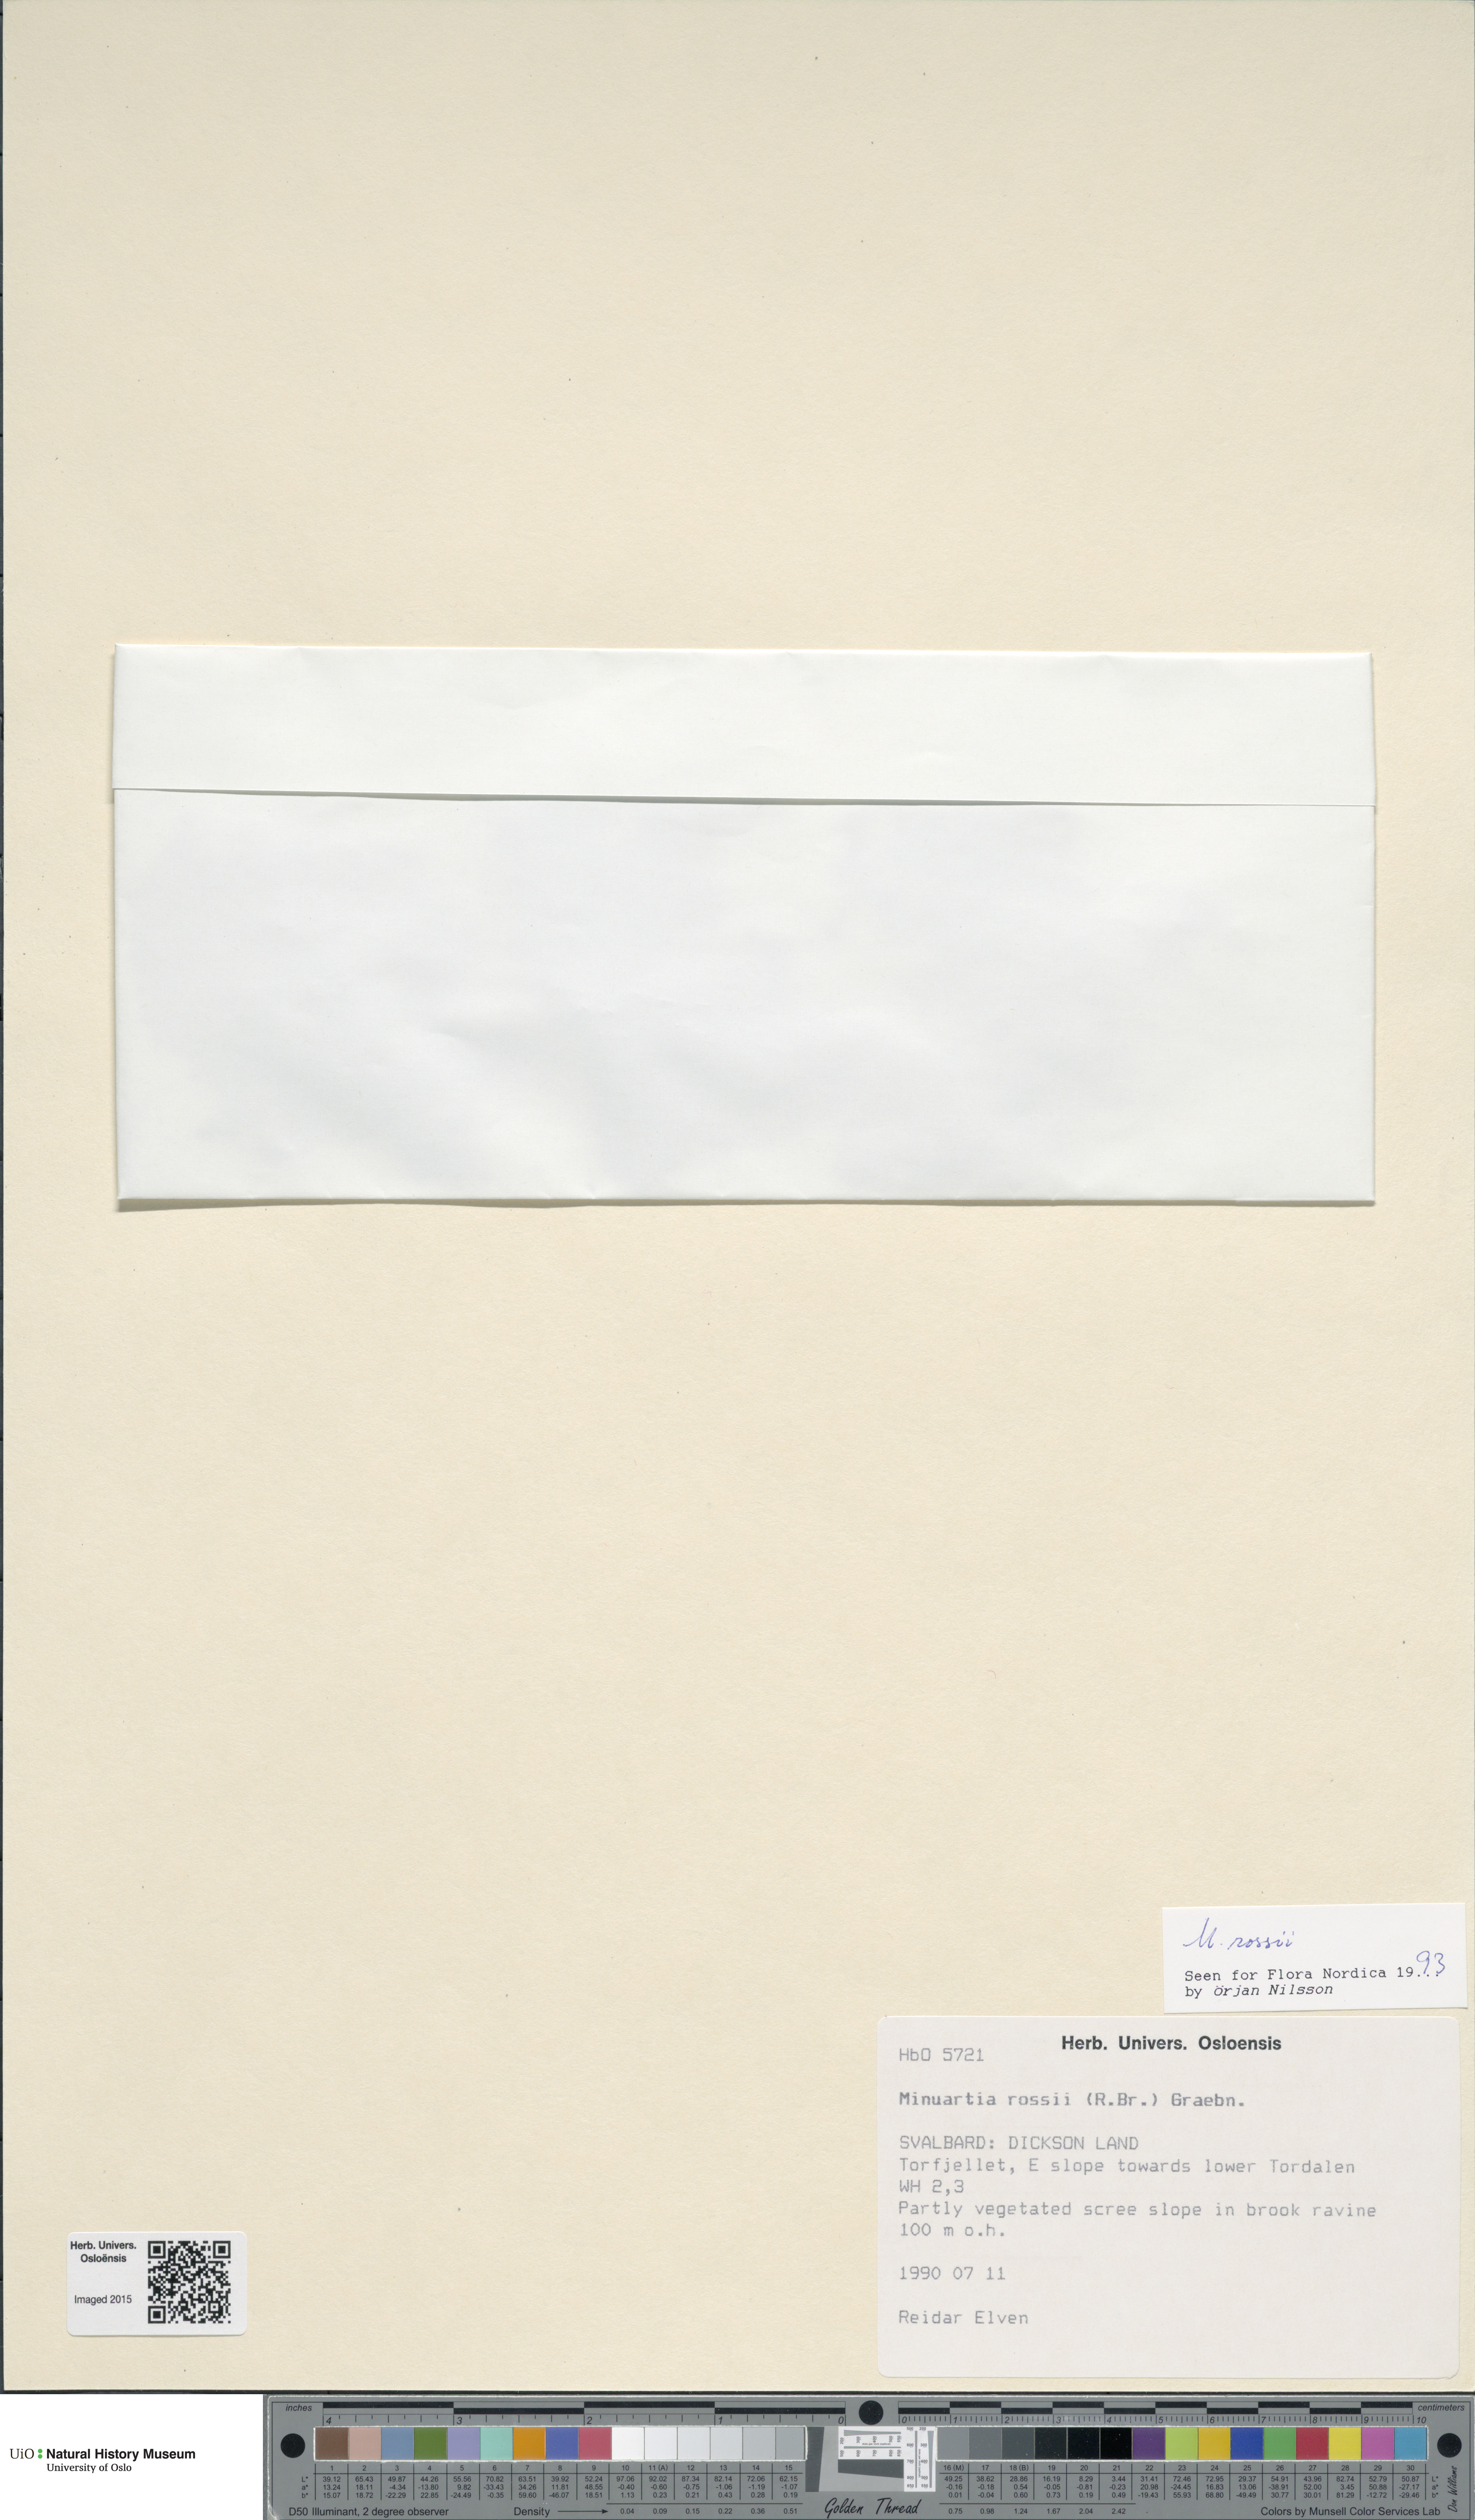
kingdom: Plantae
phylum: Tracheophyta
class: Magnoliopsida
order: Caryophyllales
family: Caryophyllaceae
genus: Sabulina
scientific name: Sabulina rosei
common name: Ross' sandwort
